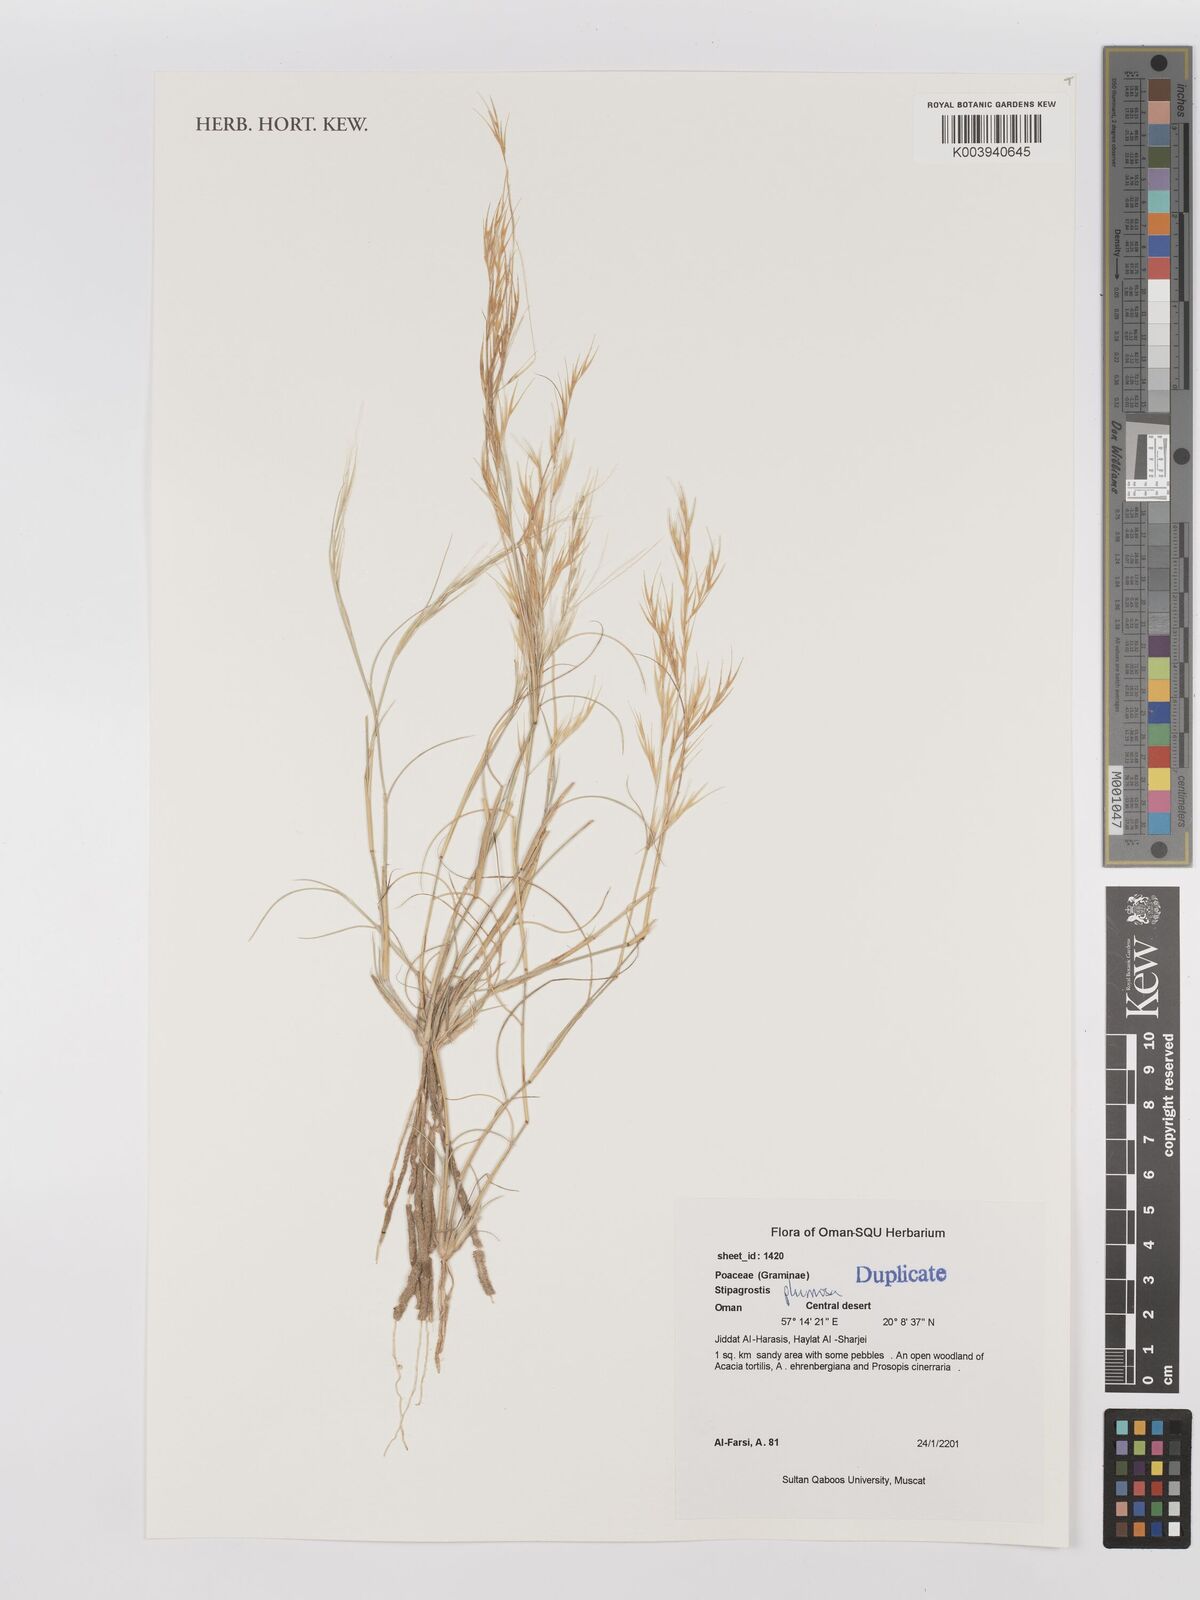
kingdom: Plantae
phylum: Tracheophyta
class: Liliopsida
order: Poales
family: Poaceae
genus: Stipagrostis
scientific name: Stipagrostis plumosa
